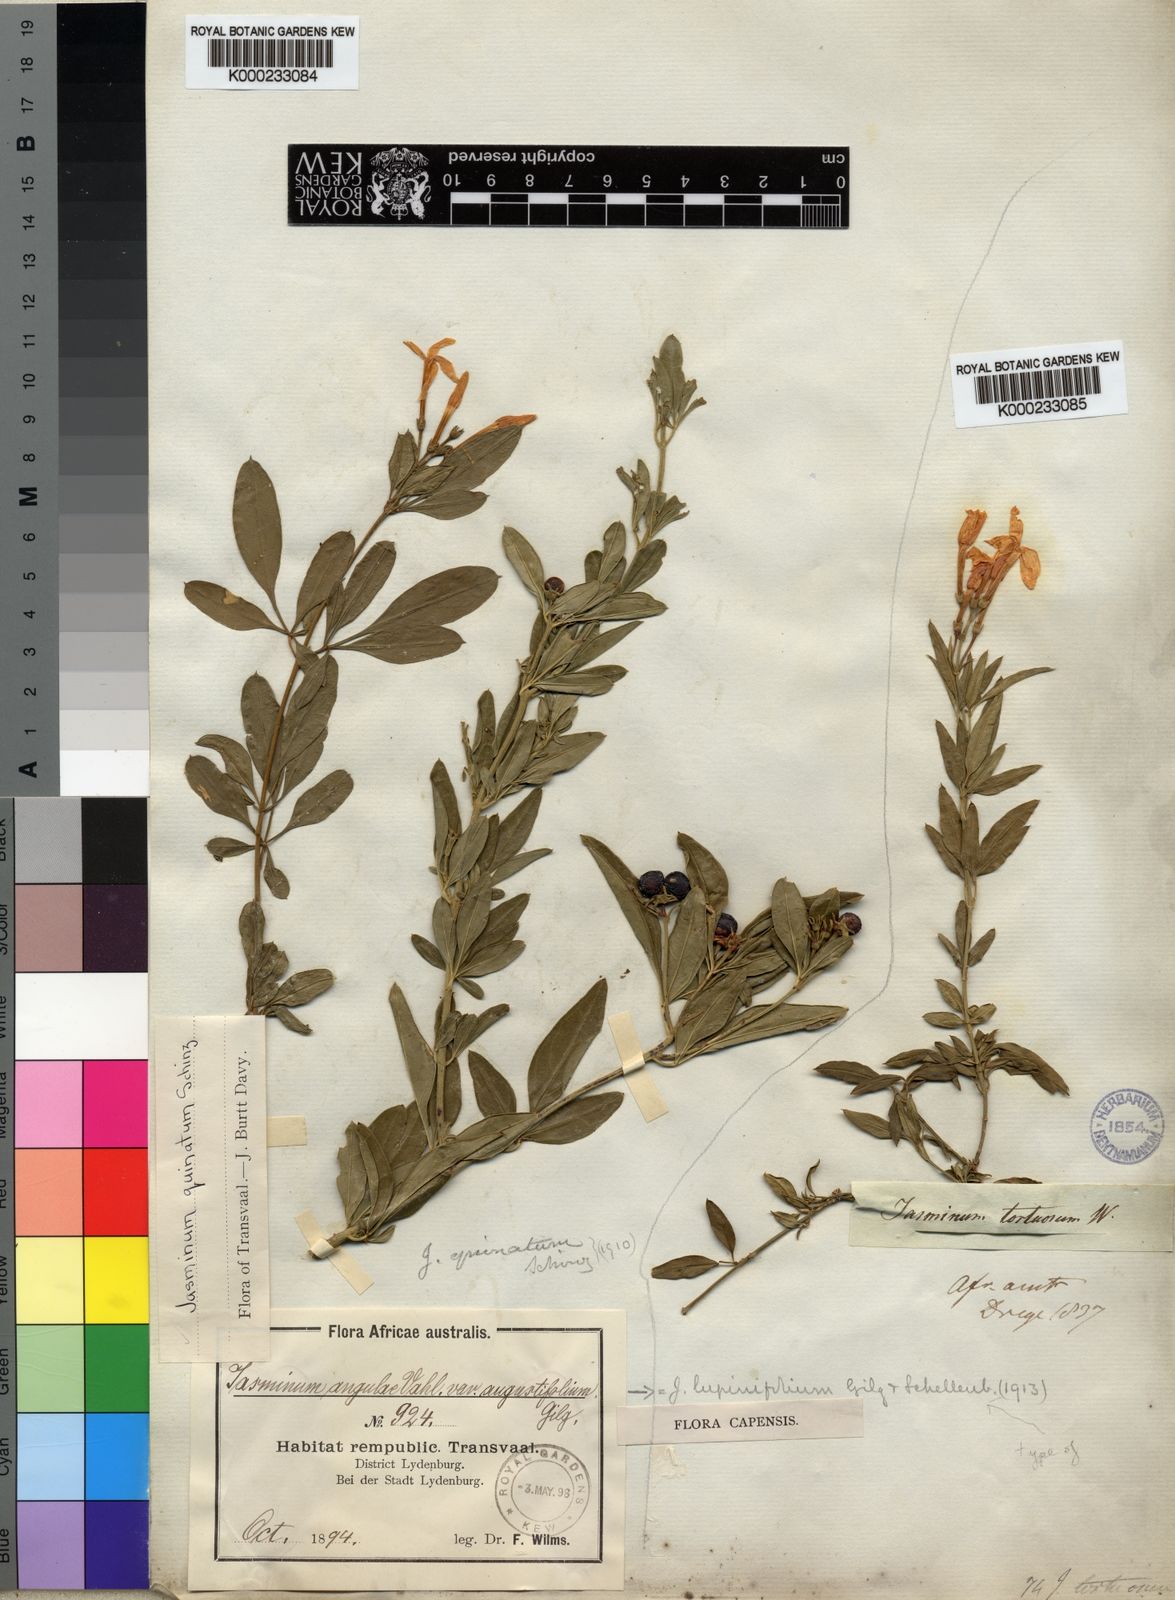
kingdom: Plantae
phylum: Tracheophyta
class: Magnoliopsida
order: Lamiales
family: Oleaceae
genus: Jasminum
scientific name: Jasminum quinatum
